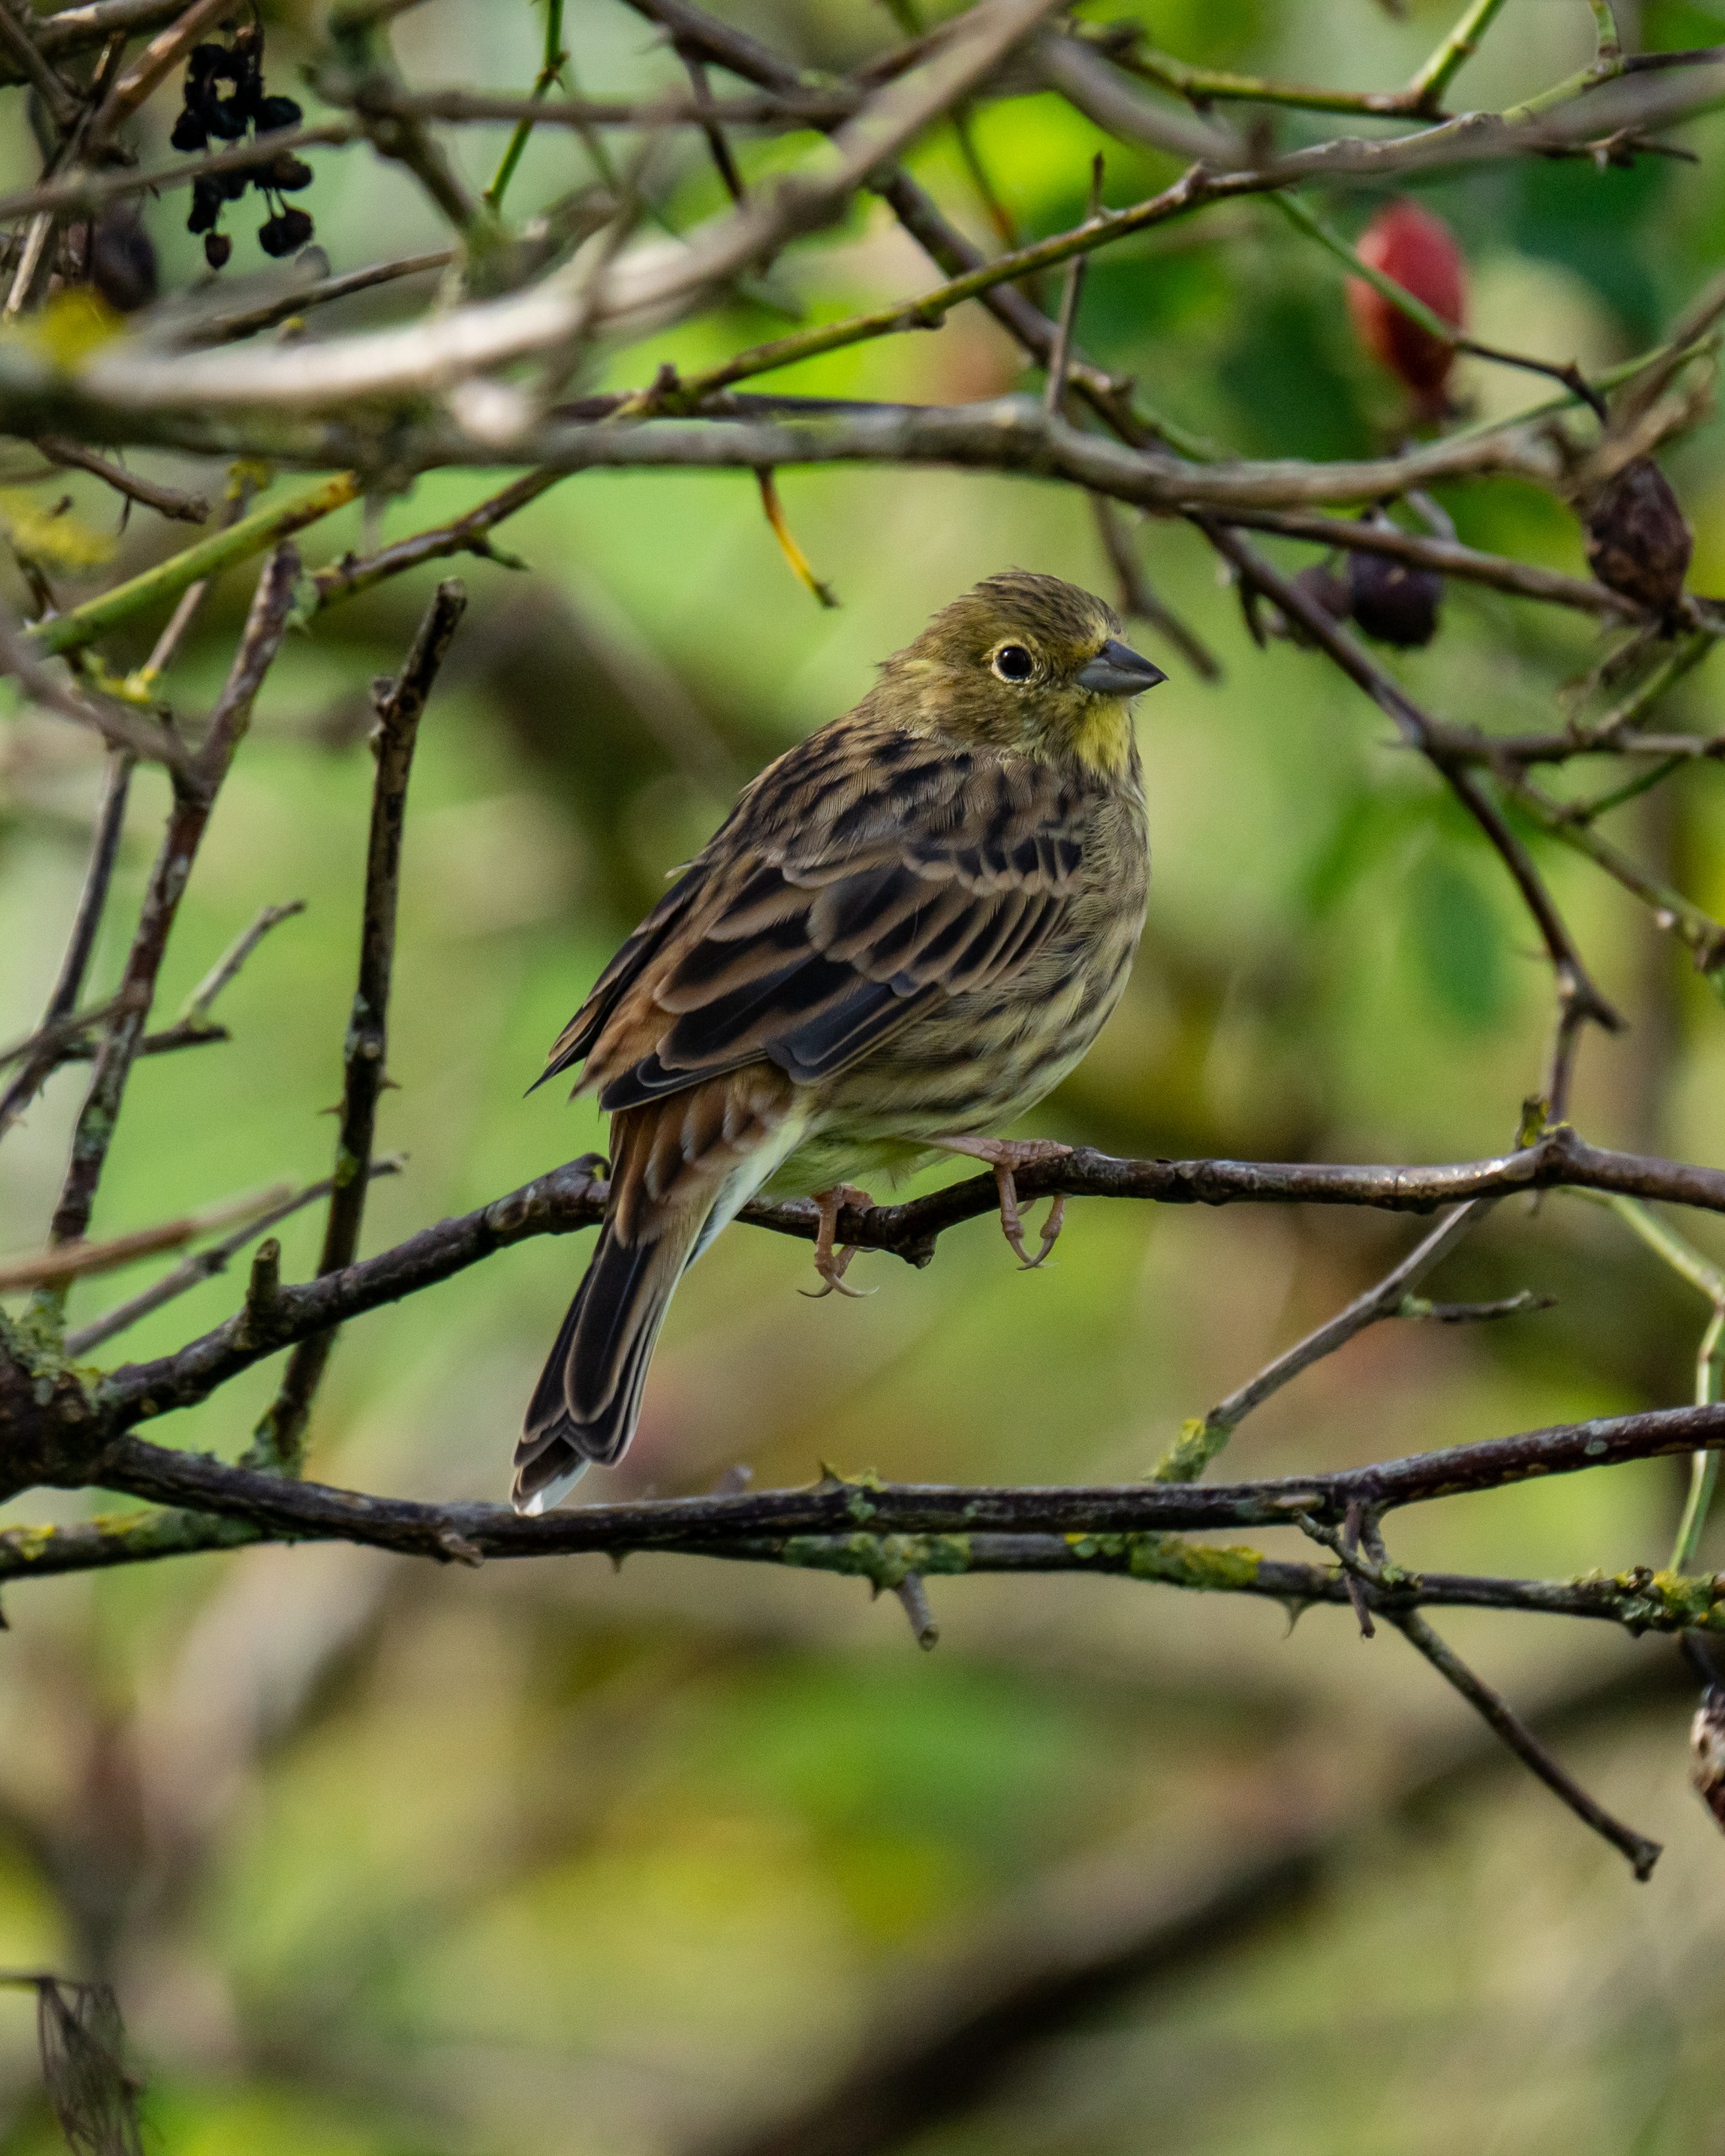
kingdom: Animalia
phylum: Chordata
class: Aves
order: Passeriformes
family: Emberizidae
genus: Emberiza
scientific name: Emberiza citrinella
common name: Gulspurv
